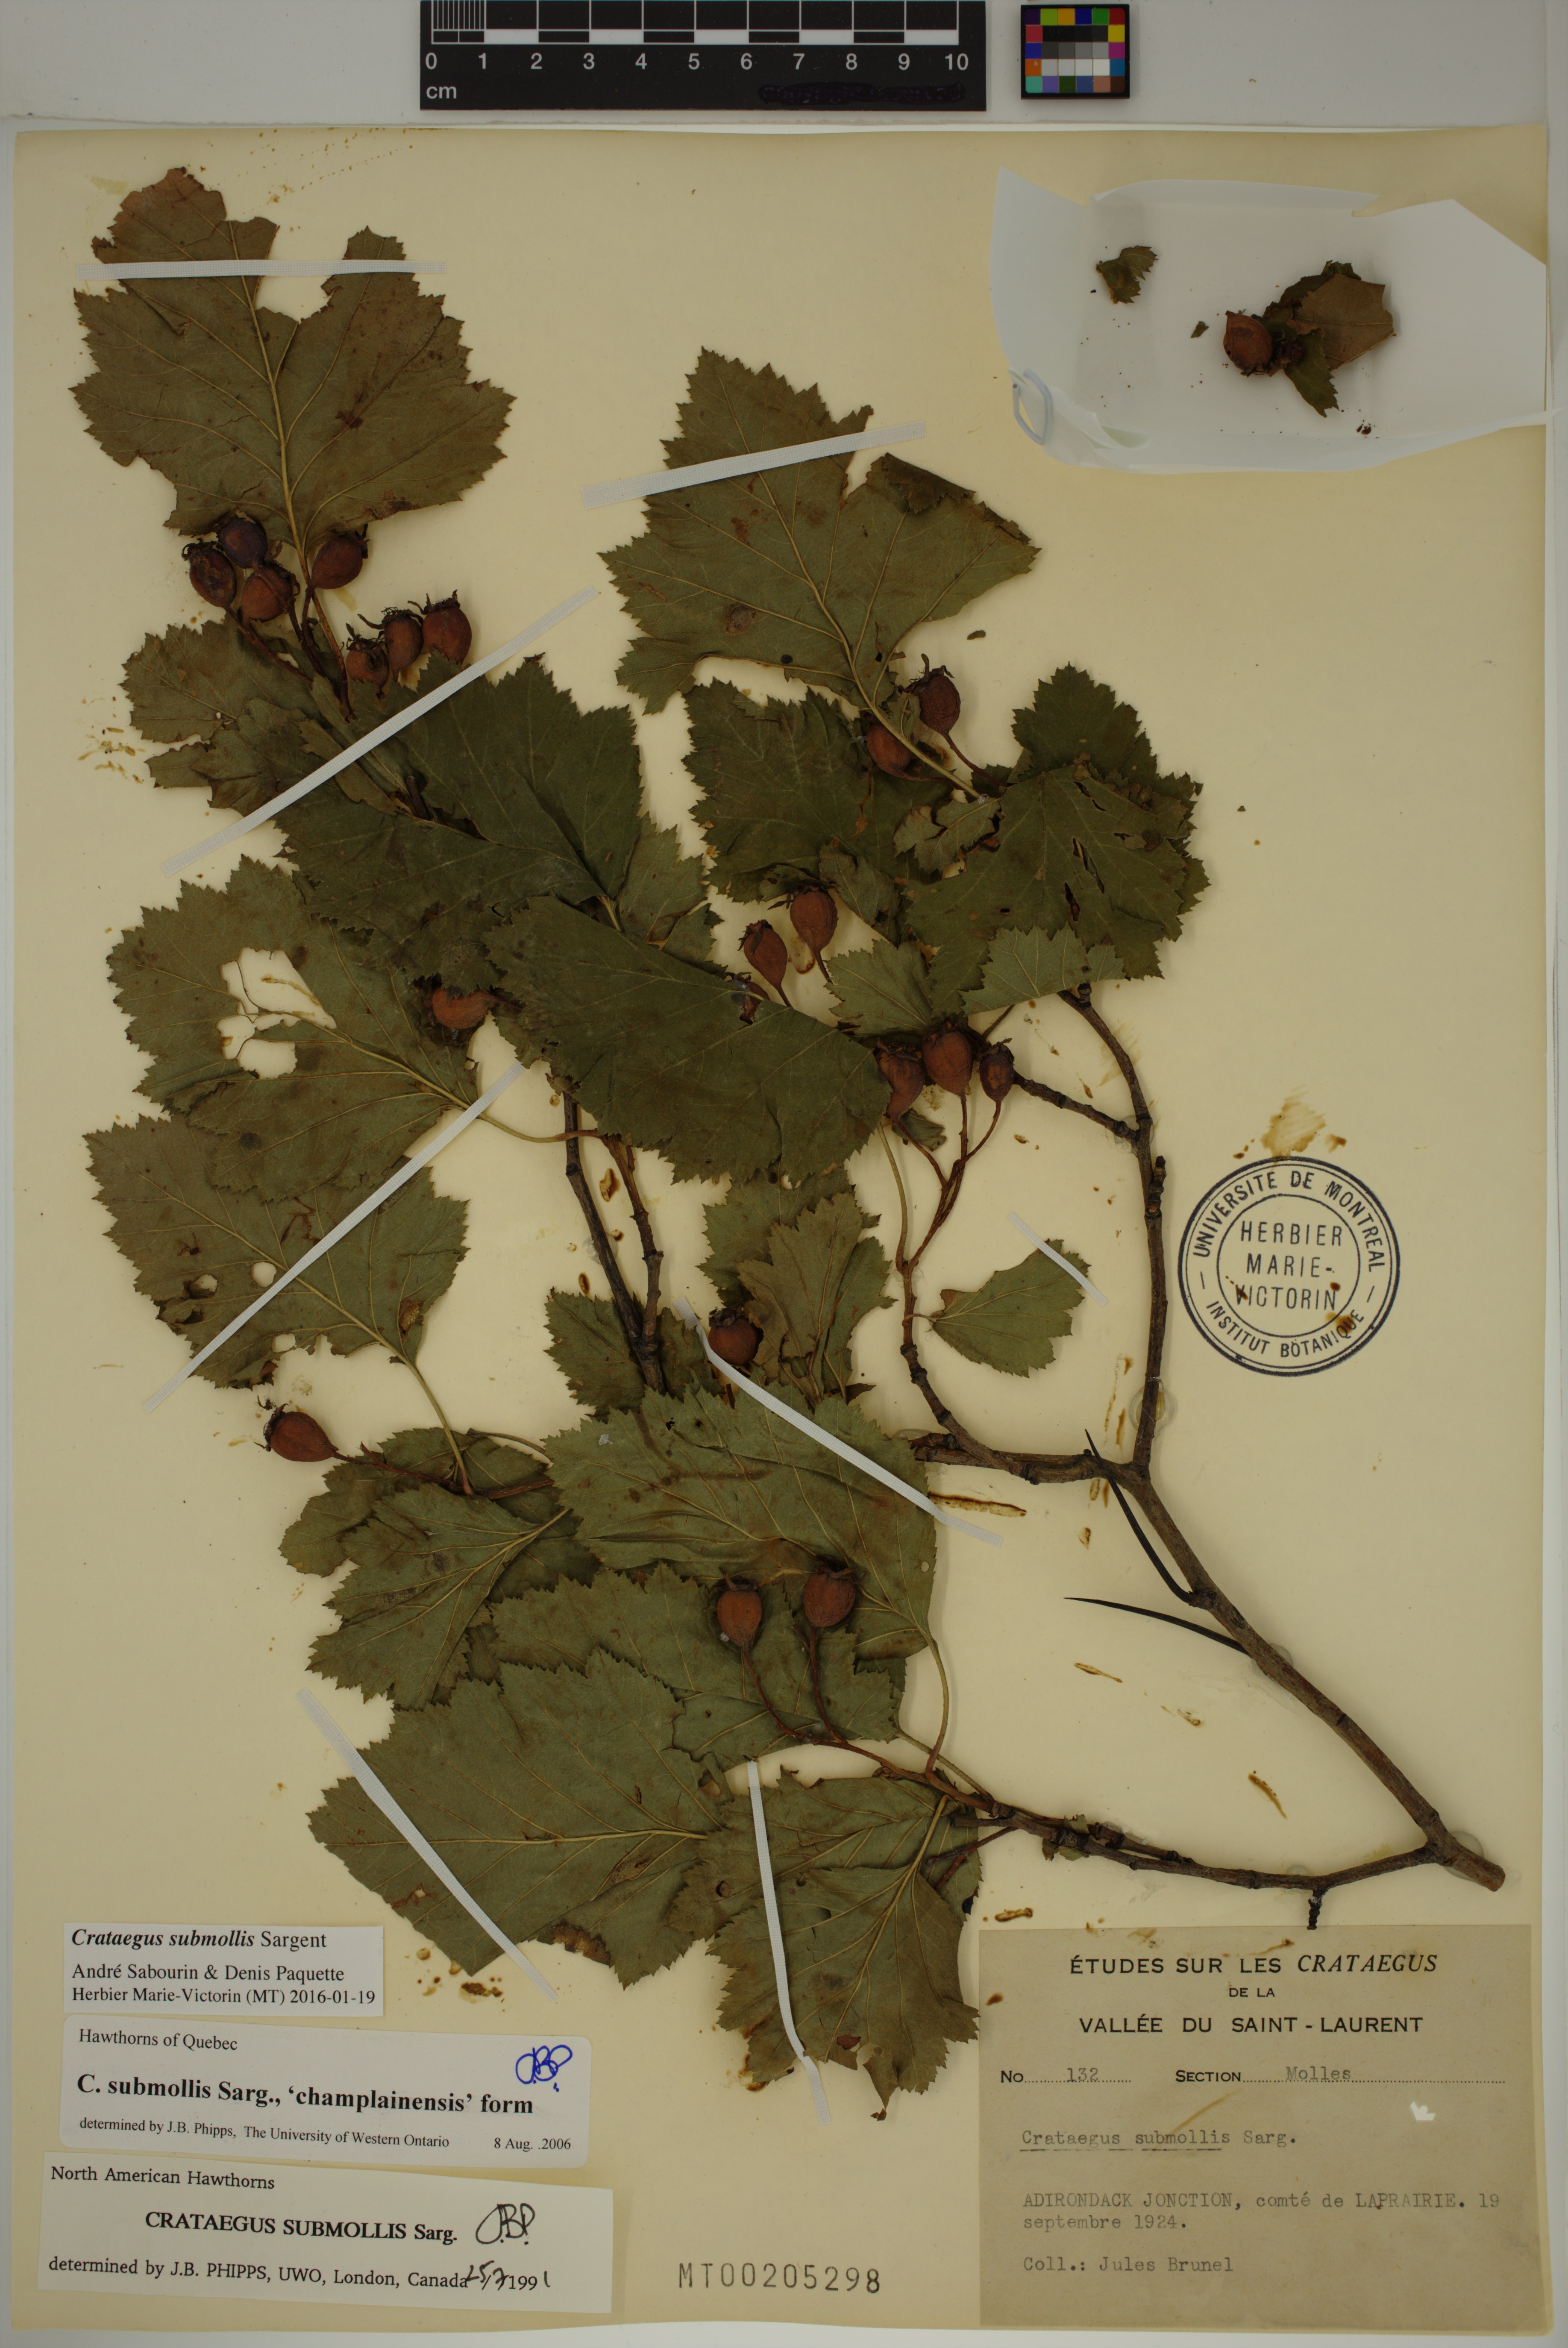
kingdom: Plantae
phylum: Tracheophyta
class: Magnoliopsida
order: Rosales
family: Rosaceae
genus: Crataegus
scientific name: Crataegus submollis
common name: Hairy cockspurthorn
